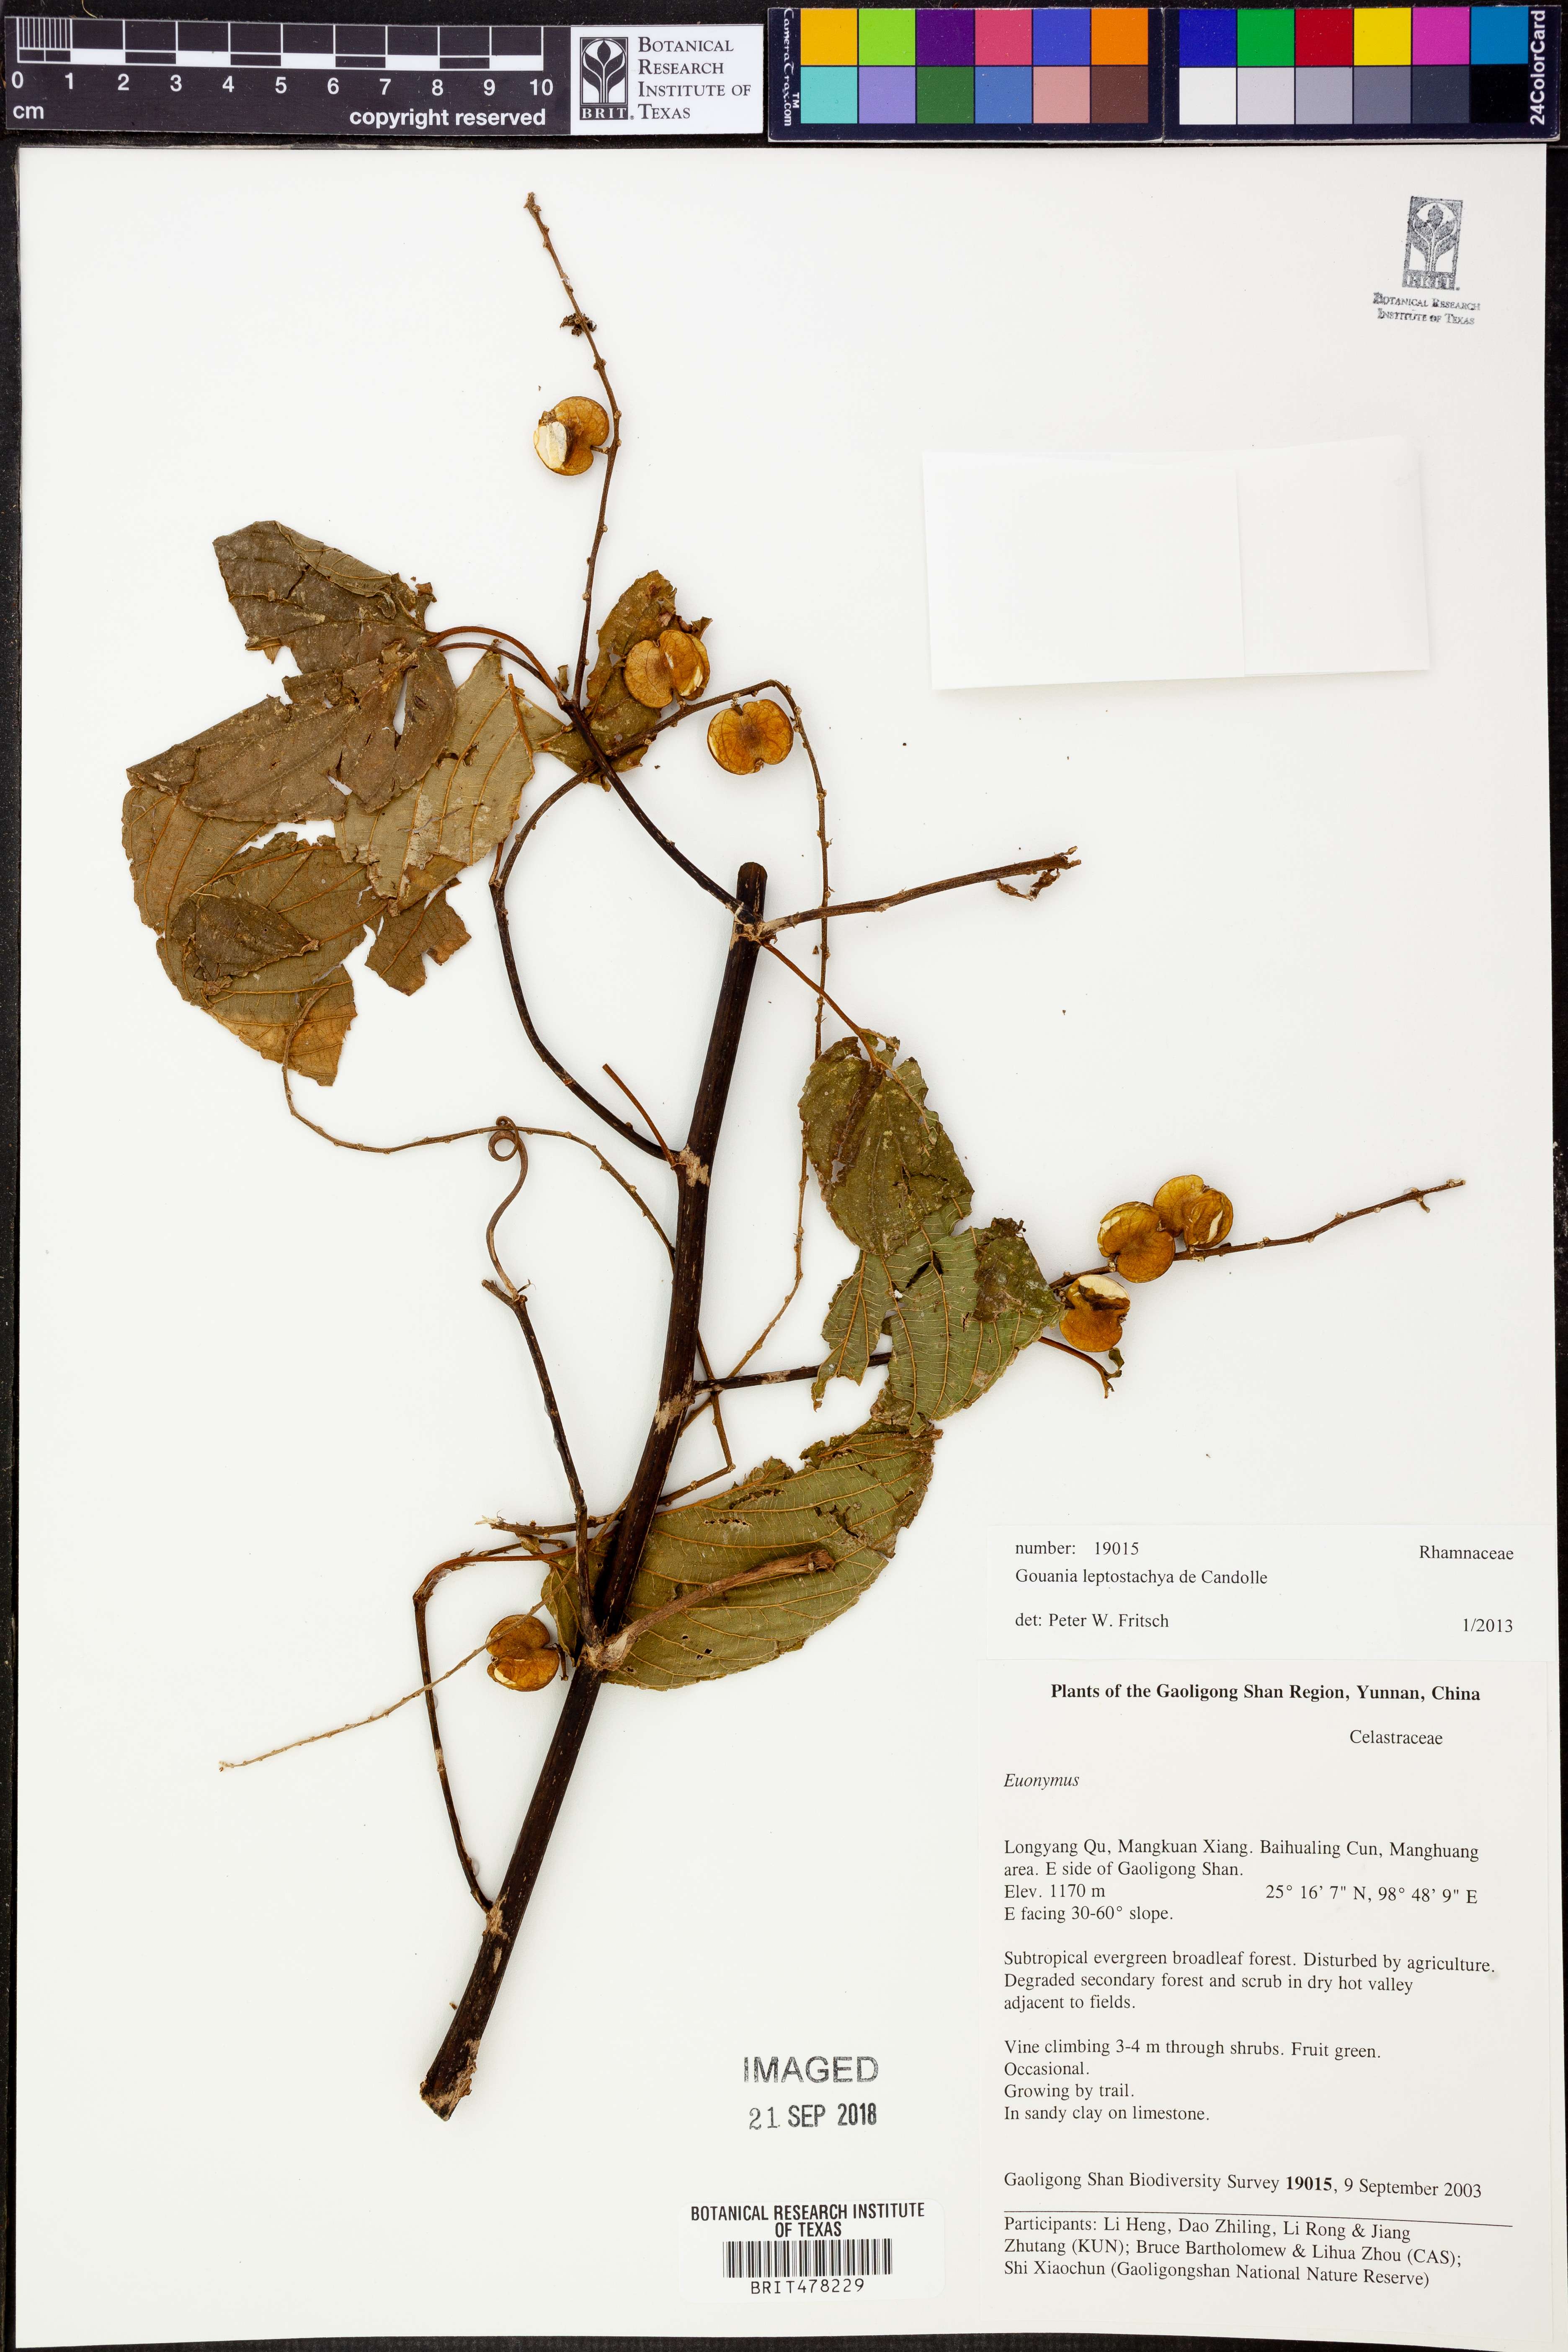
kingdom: Plantae
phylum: Tracheophyta
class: Magnoliopsida
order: Rosales
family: Rhamnaceae
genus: Gouania
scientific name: Gouania leptostachya
